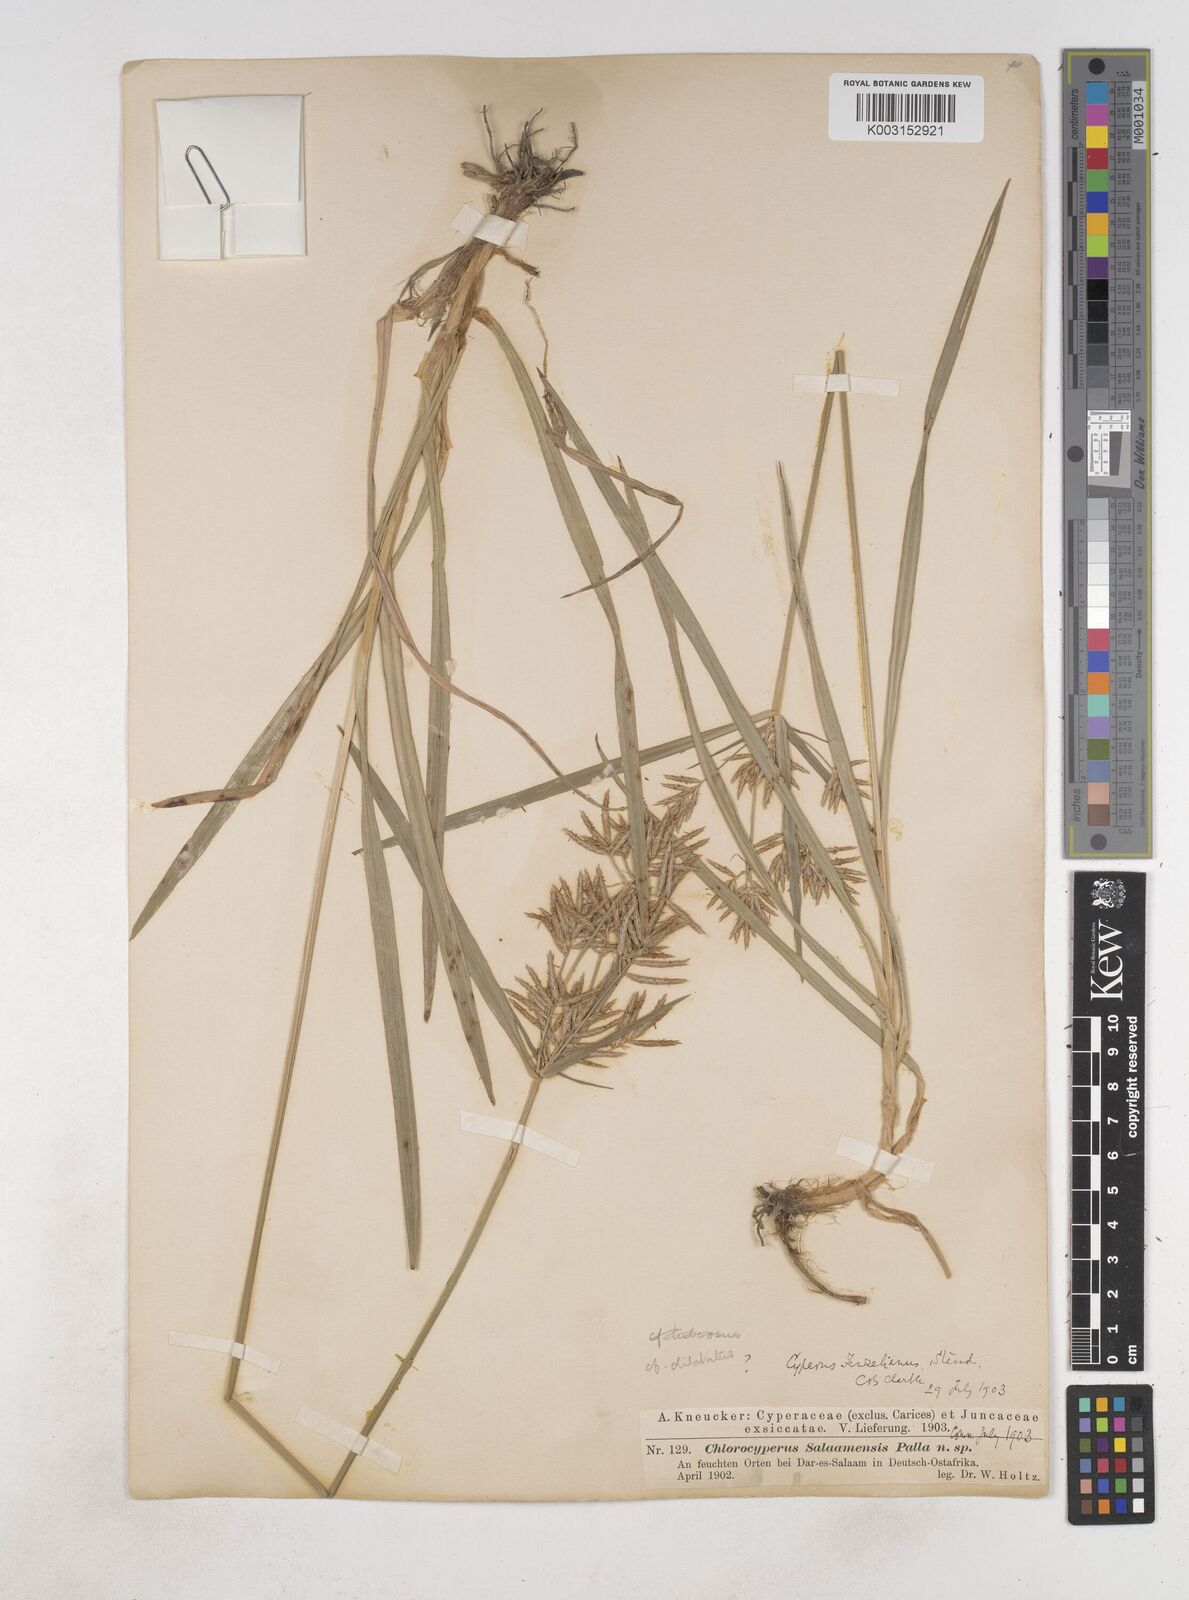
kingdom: Plantae
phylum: Tracheophyta
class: Liliopsida
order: Poales
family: Cyperaceae
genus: Cyperus
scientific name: Cyperus dilatatus
